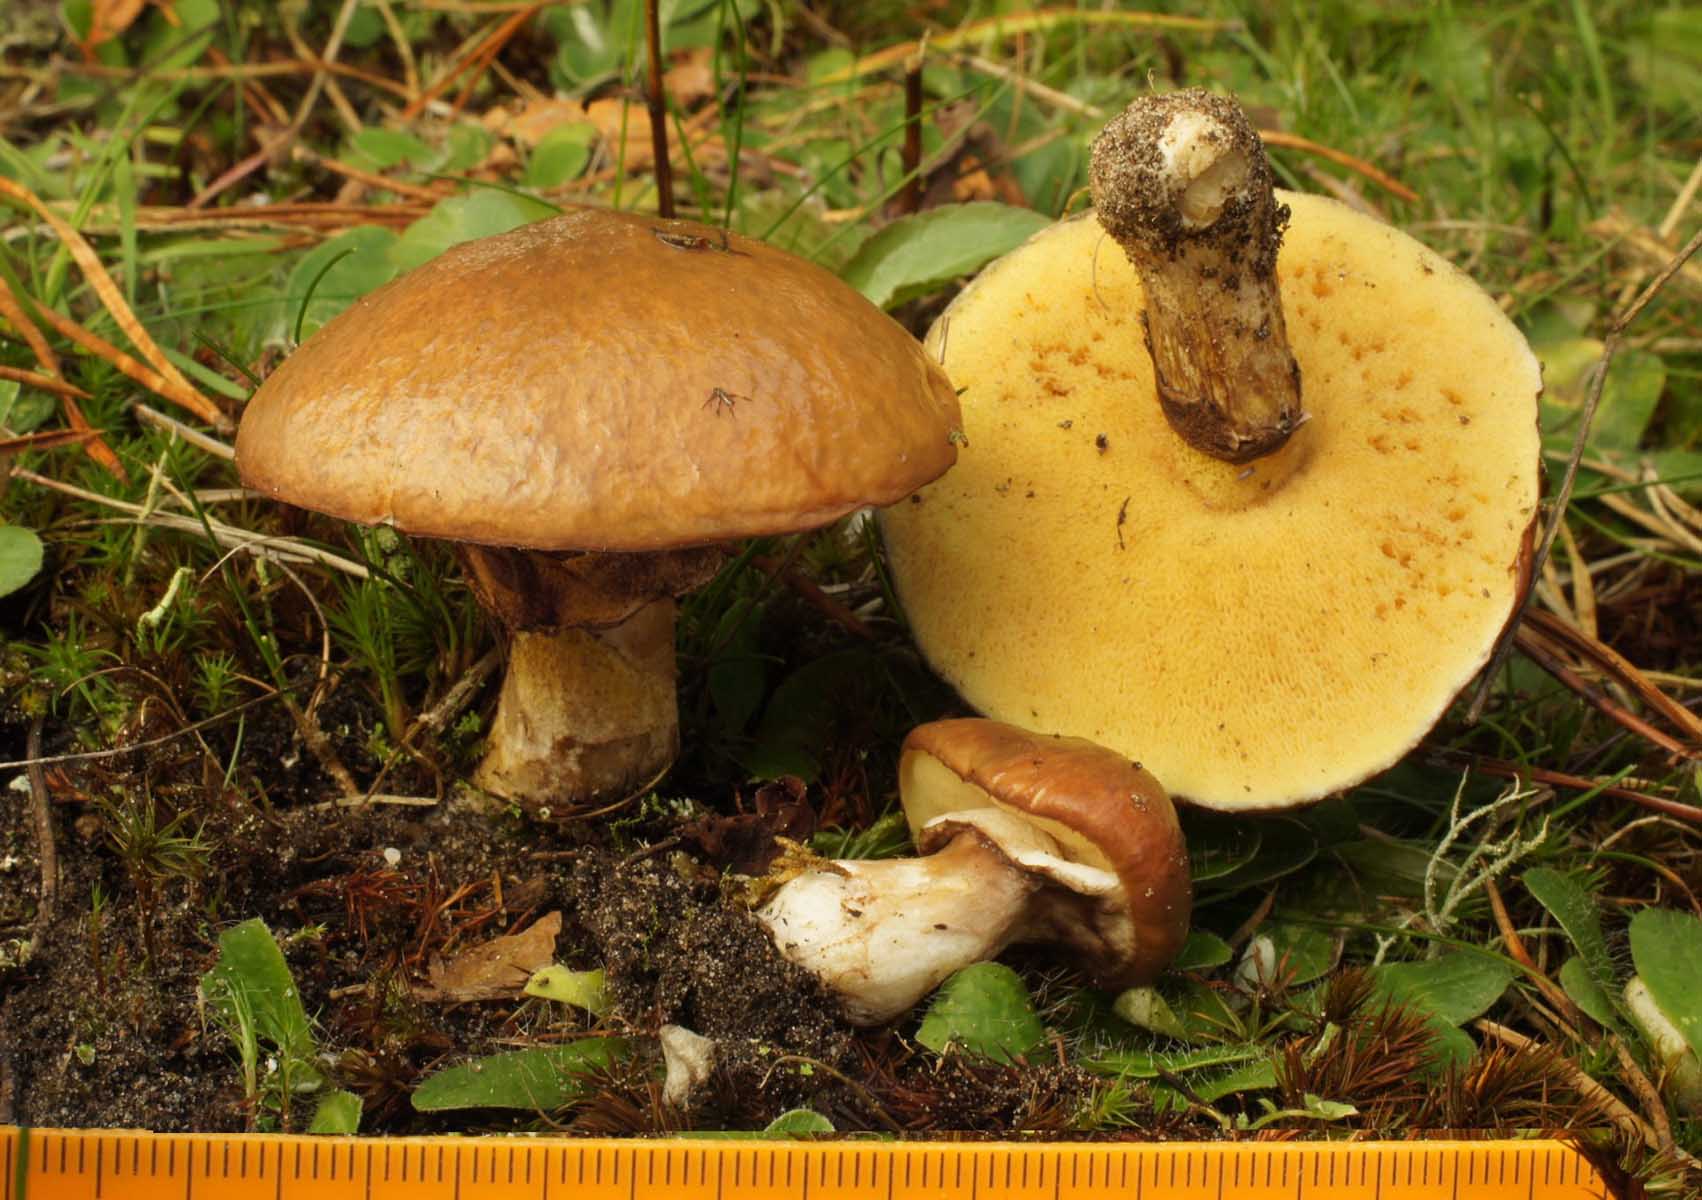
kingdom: Fungi
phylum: Basidiomycota
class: Agaricomycetes
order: Boletales
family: Suillaceae
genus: Suillus
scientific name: Suillus luteus
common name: brungul slimrørhat
